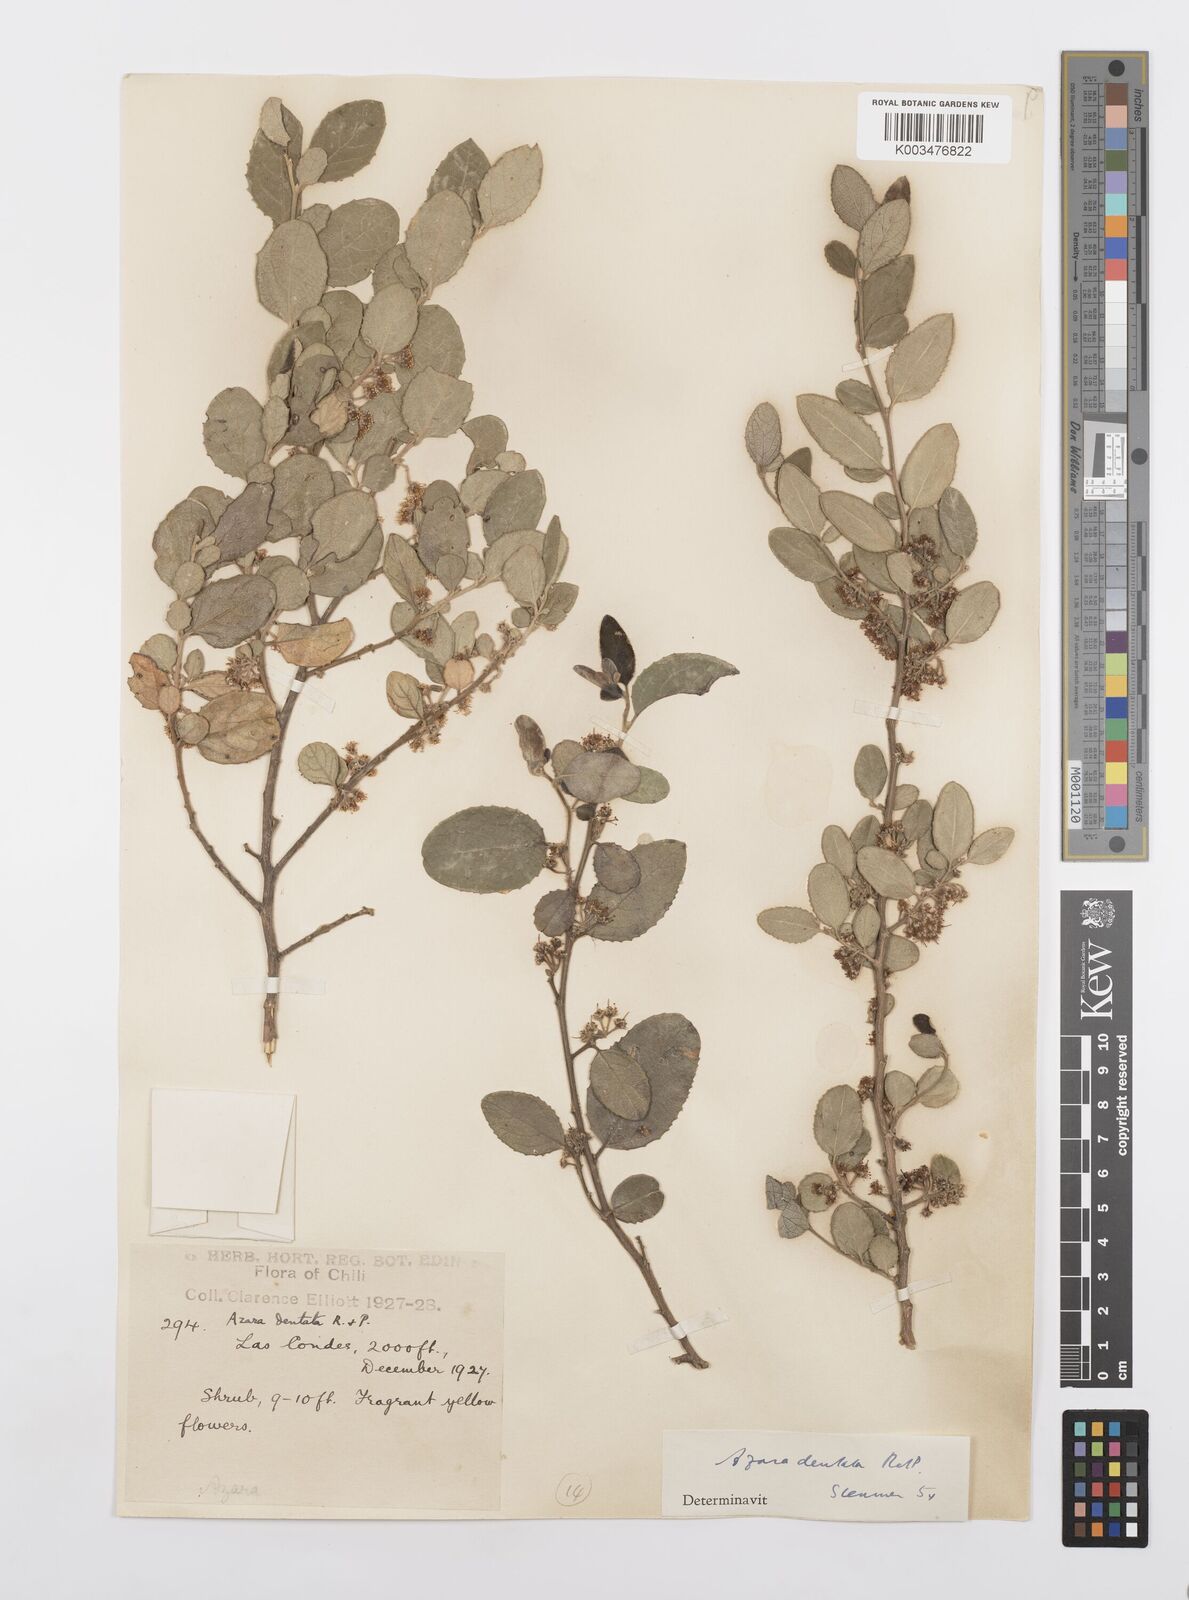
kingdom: Plantae
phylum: Tracheophyta
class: Magnoliopsida
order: Malpighiales
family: Salicaceae
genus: Azara
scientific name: Azara dentata
